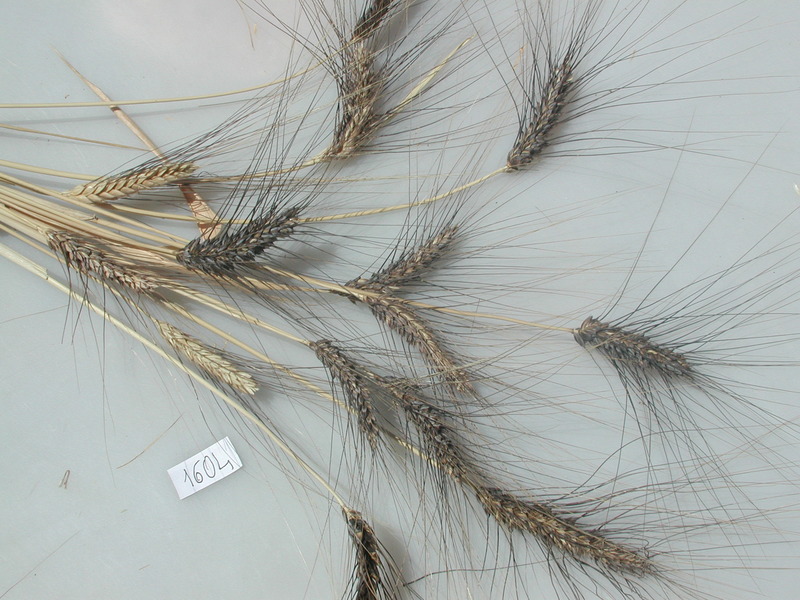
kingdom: Plantae
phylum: Tracheophyta
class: Liliopsida
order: Poales
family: Poaceae
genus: Triticum
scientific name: Triticum turgidum
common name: Wheat
